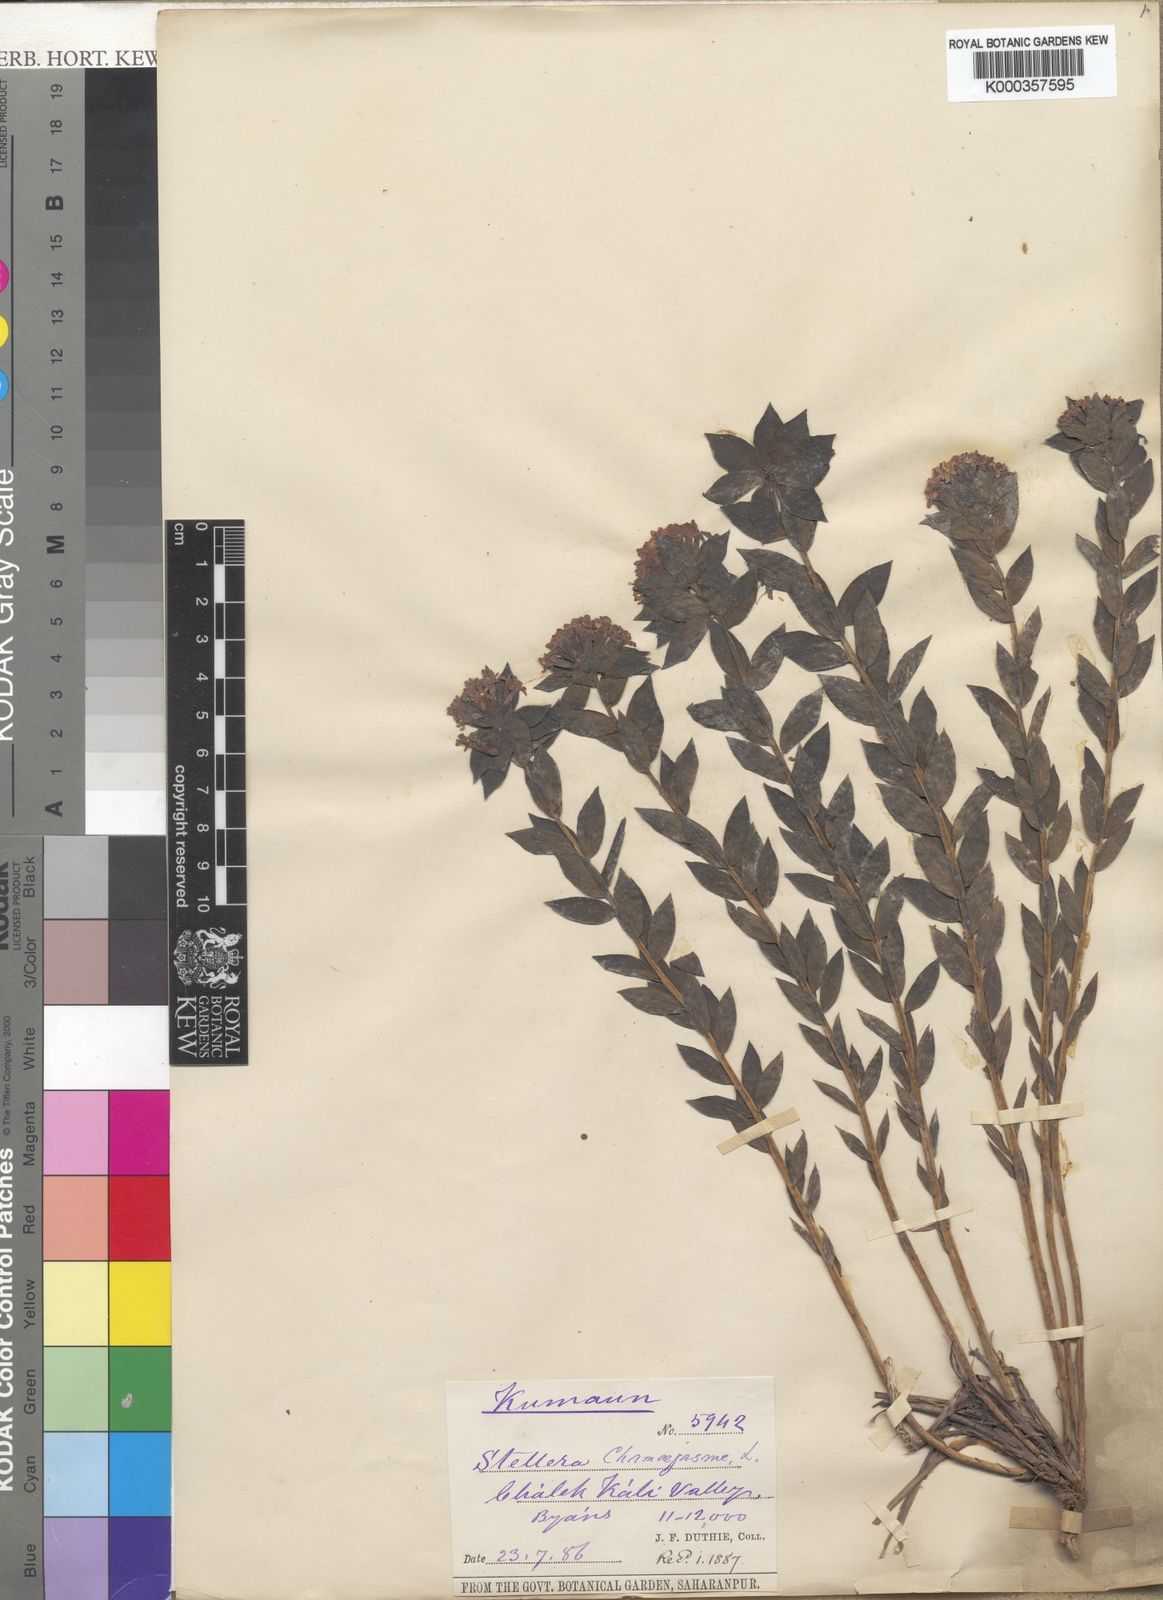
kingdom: Plantae
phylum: Tracheophyta
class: Magnoliopsida
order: Malvales
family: Thymelaeaceae
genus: Stellera
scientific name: Stellera chamaejasme
